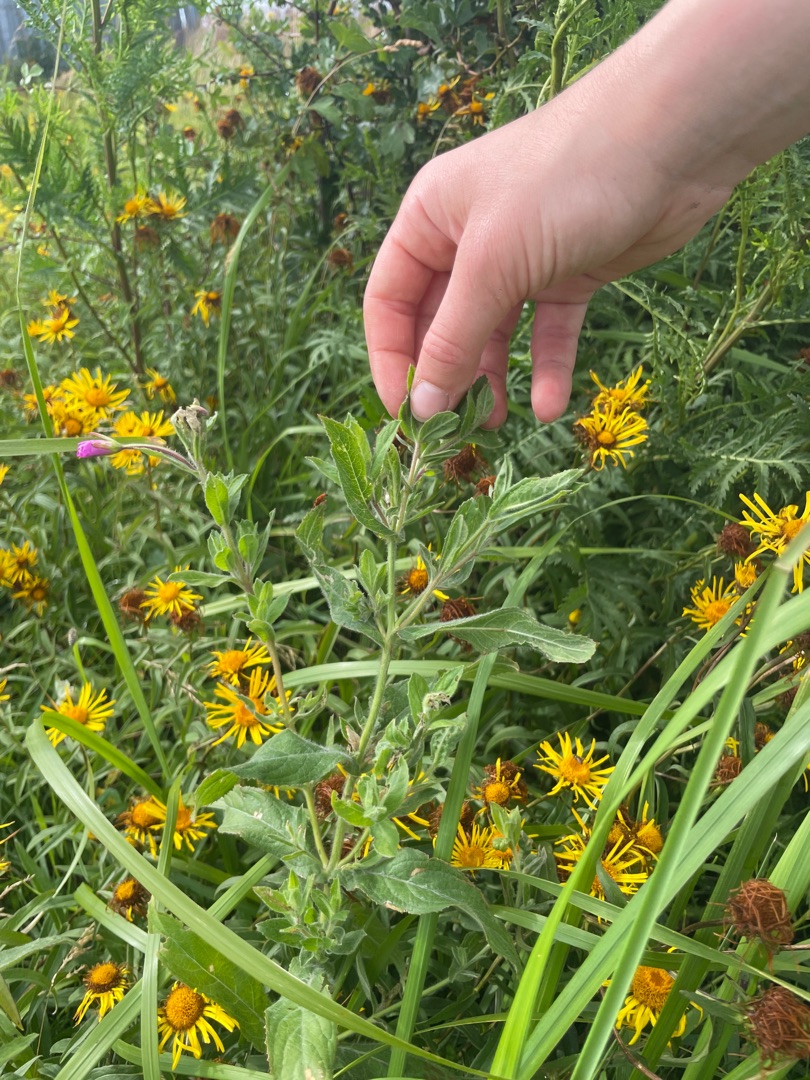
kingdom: Plantae
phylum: Tracheophyta
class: Magnoliopsida
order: Myrtales
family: Onagraceae
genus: Epilobium
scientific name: Epilobium hirsutum
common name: Lådden dueurt
